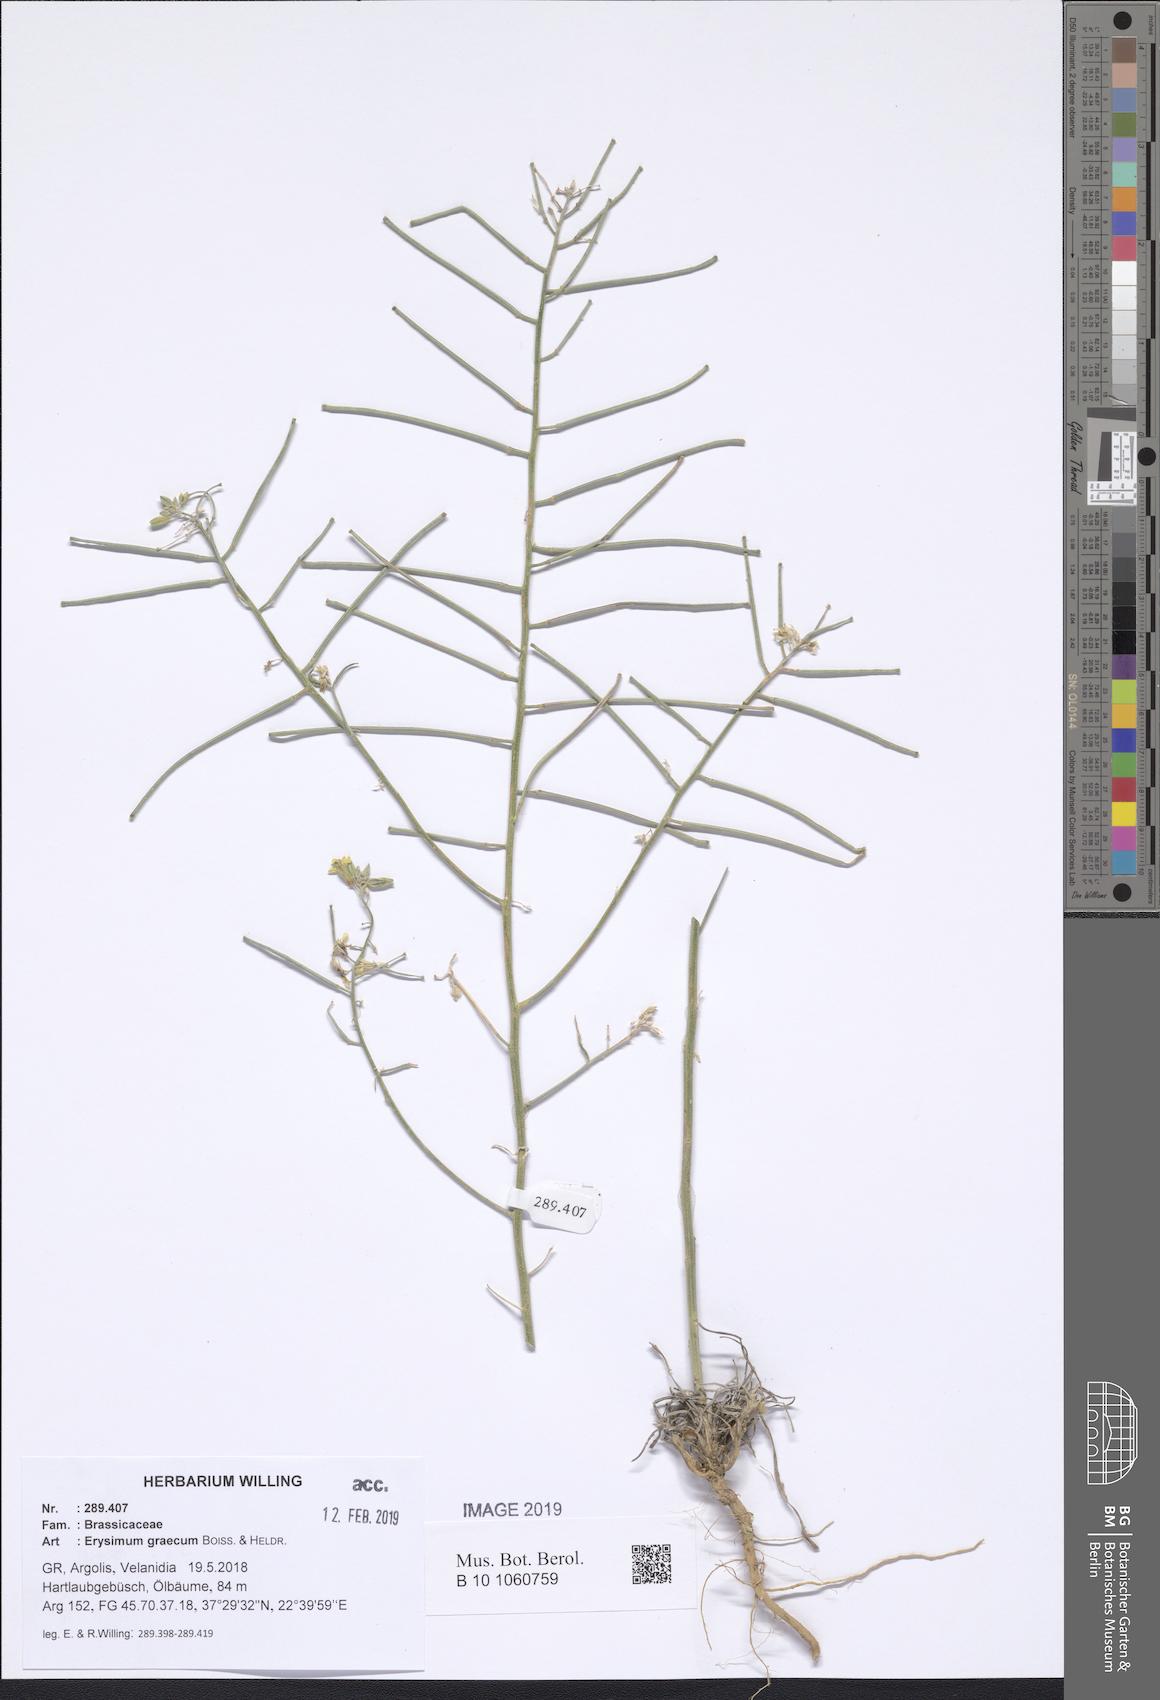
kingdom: Plantae
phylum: Tracheophyta
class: Magnoliopsida
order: Brassicales
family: Brassicaceae
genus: Erysimum
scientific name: Erysimum graecum
